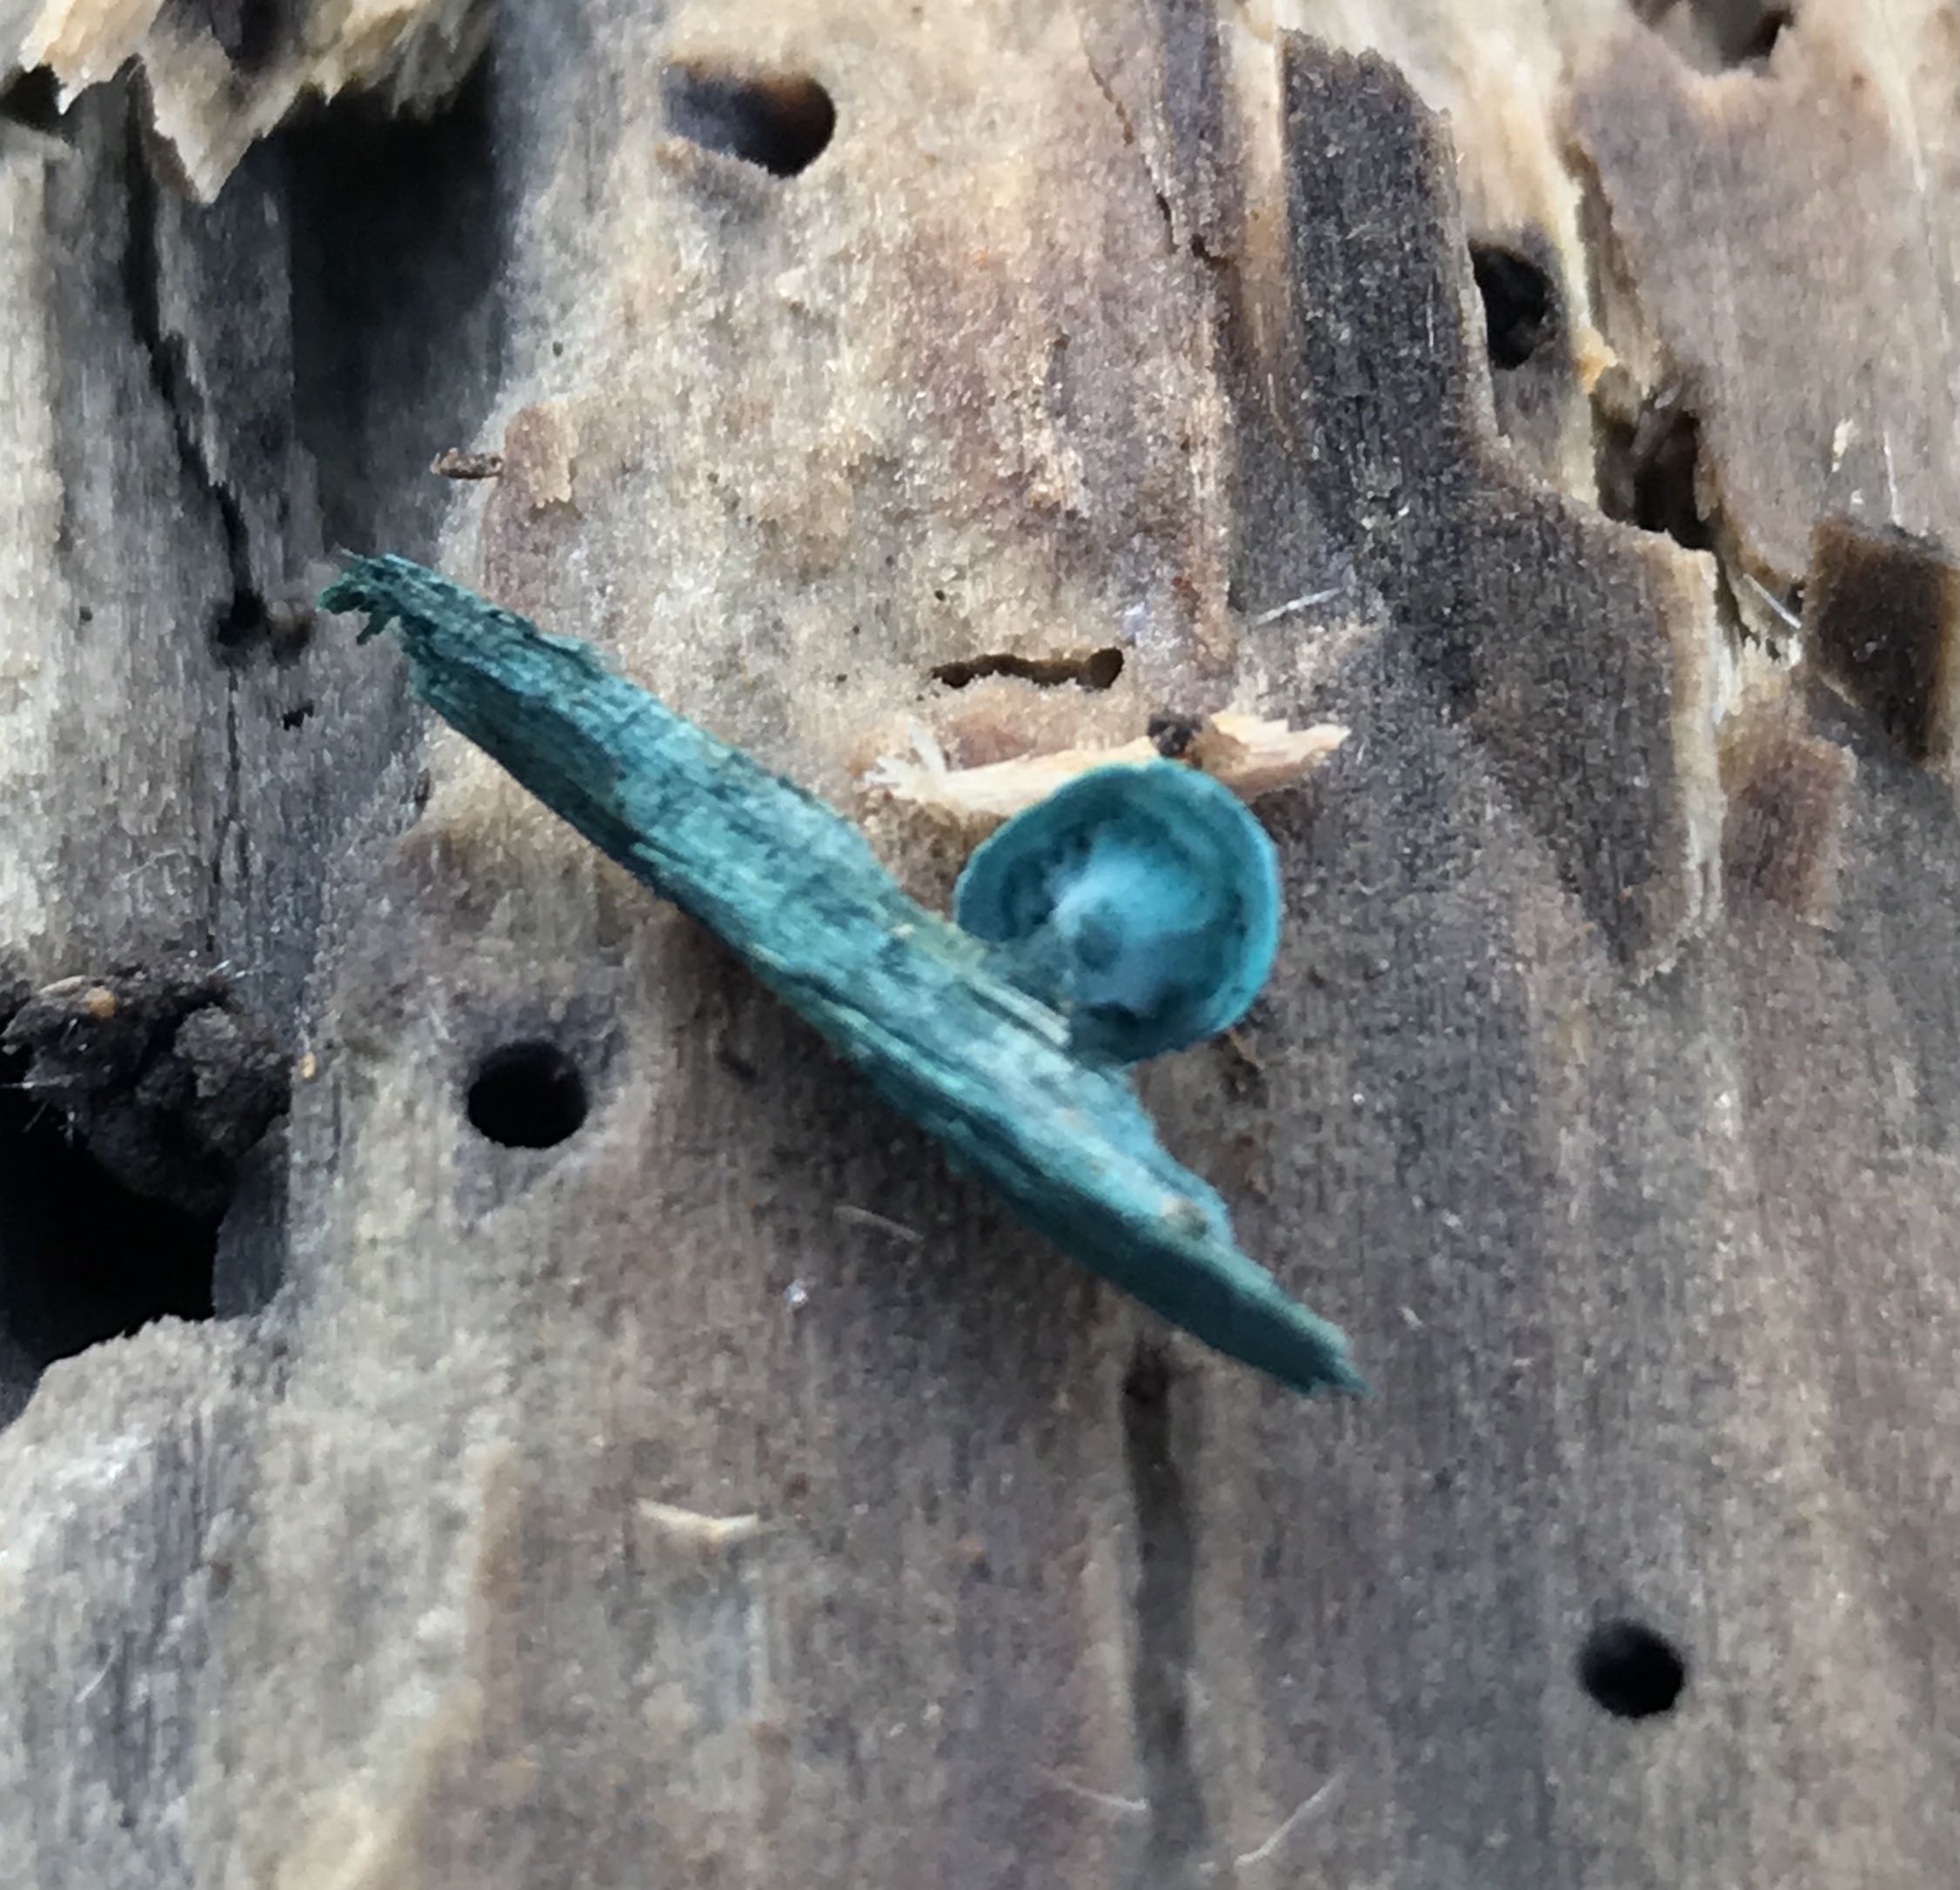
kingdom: Fungi
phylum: Ascomycota
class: Leotiomycetes
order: Helotiales
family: Chlorociboriaceae
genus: Chlorociboria
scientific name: Chlorociboria aeruginascens
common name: almindelig grønskive
